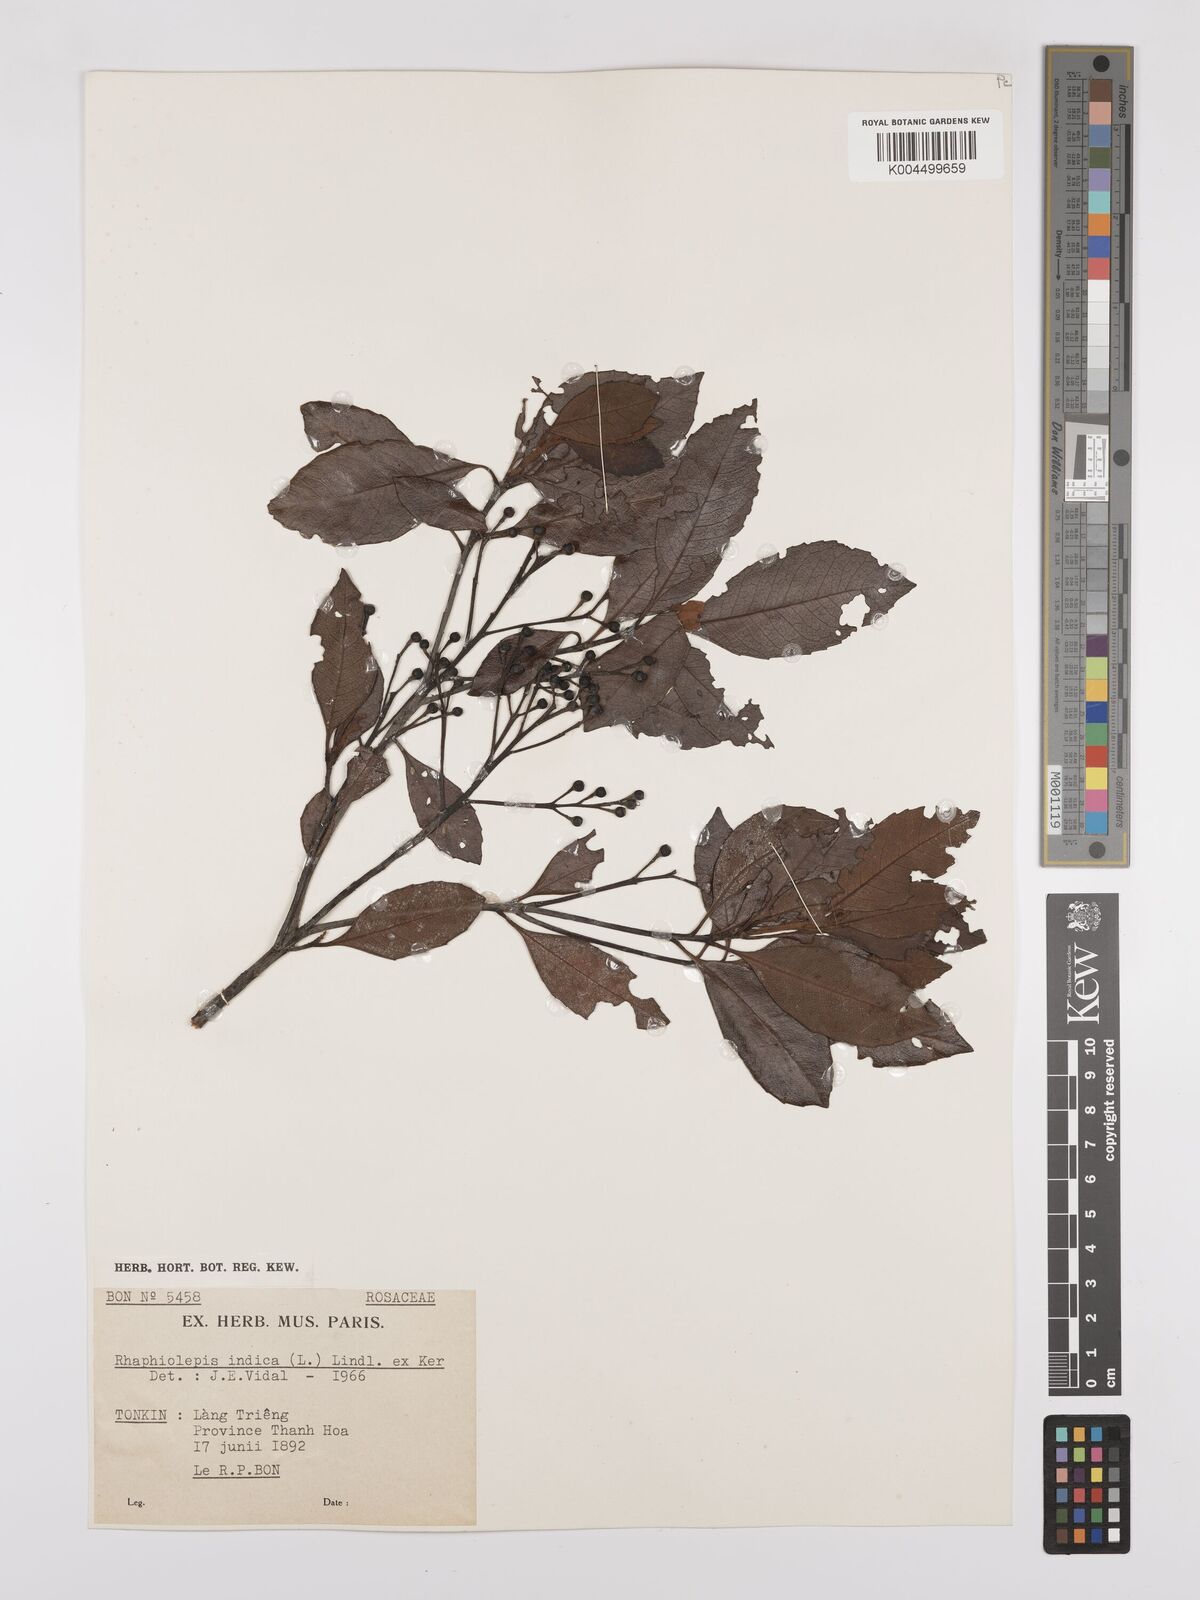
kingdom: Plantae
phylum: Tracheophyta
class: Magnoliopsida
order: Rosales
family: Rosaceae
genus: Rhaphiolepis
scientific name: Rhaphiolepis indica
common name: India-hawthorn
